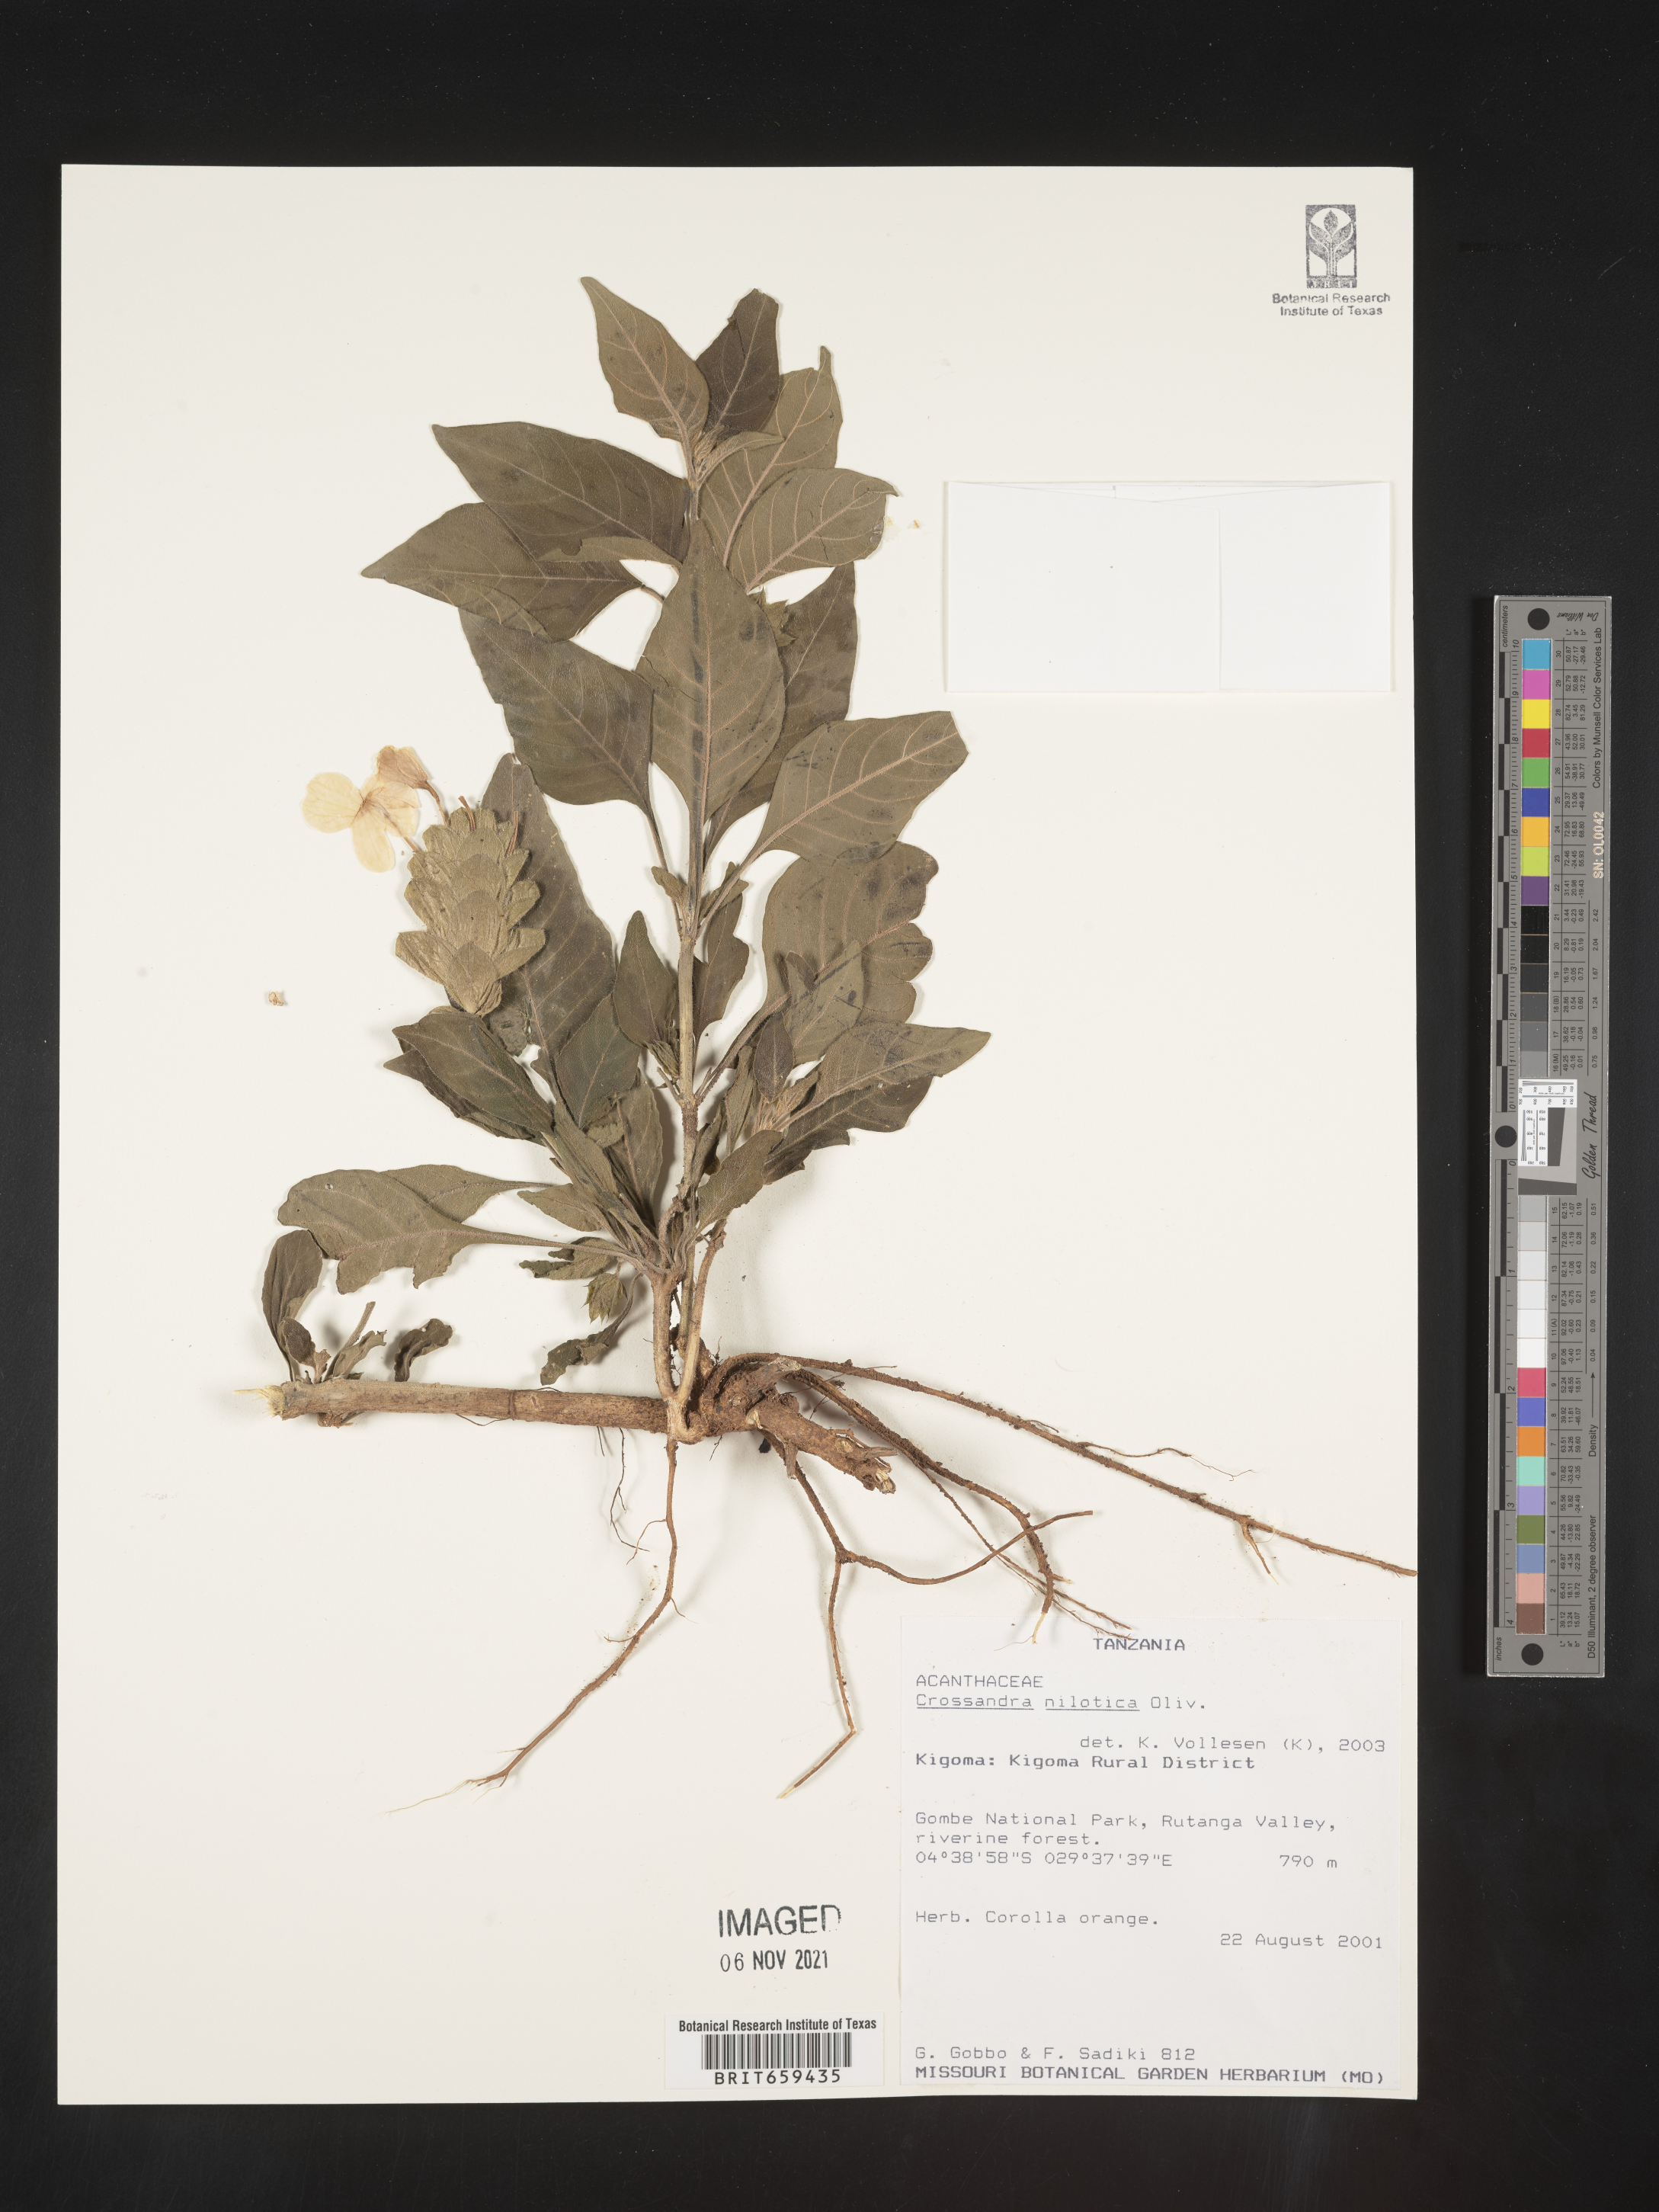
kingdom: Plantae
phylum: Tracheophyta
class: Magnoliopsida
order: Lamiales
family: Acanthaceae
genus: Crossandra
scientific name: Crossandra nilotica
